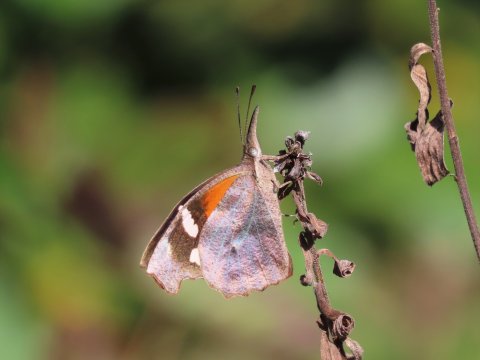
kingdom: Animalia
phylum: Arthropoda
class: Insecta
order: Lepidoptera
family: Nymphalidae
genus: Libytheana
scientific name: Libytheana carinenta
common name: American Snout
